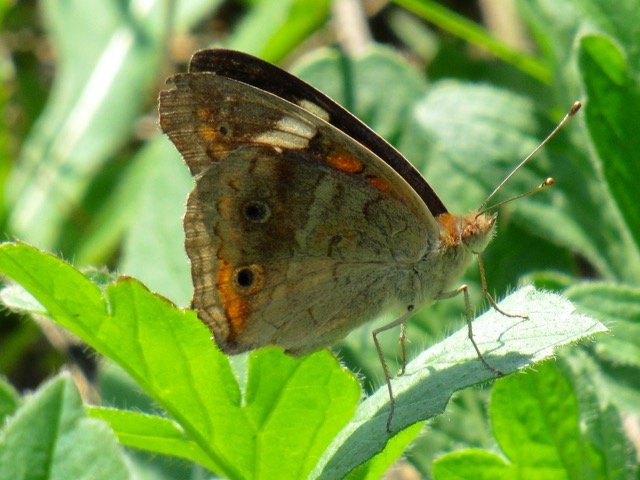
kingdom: Animalia
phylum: Arthropoda
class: Insecta
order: Lepidoptera
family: Nymphalidae
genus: Junonia
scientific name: Junonia coenia
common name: Common Buckeye
